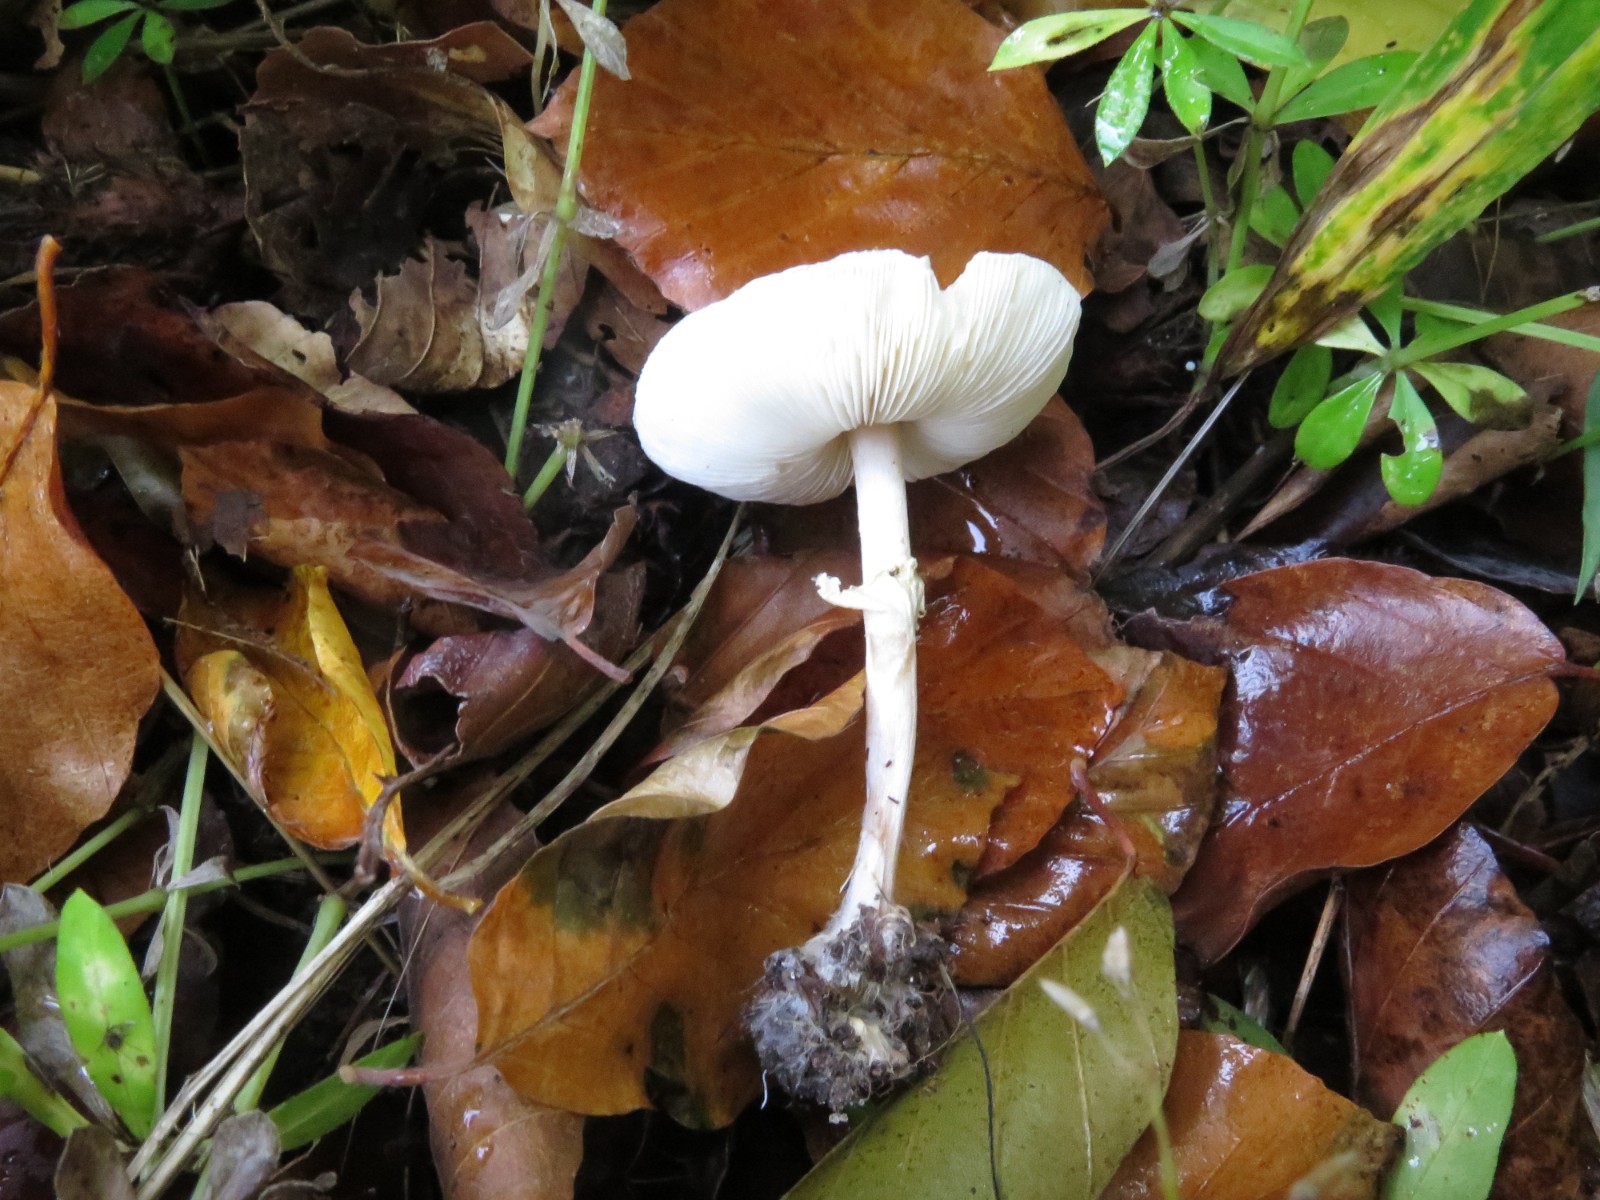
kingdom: Fungi
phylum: Basidiomycota
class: Agaricomycetes
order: Agaricales
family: Agaricaceae
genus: Lepiota
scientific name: Lepiota cristata
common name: stinkende parasolhat
